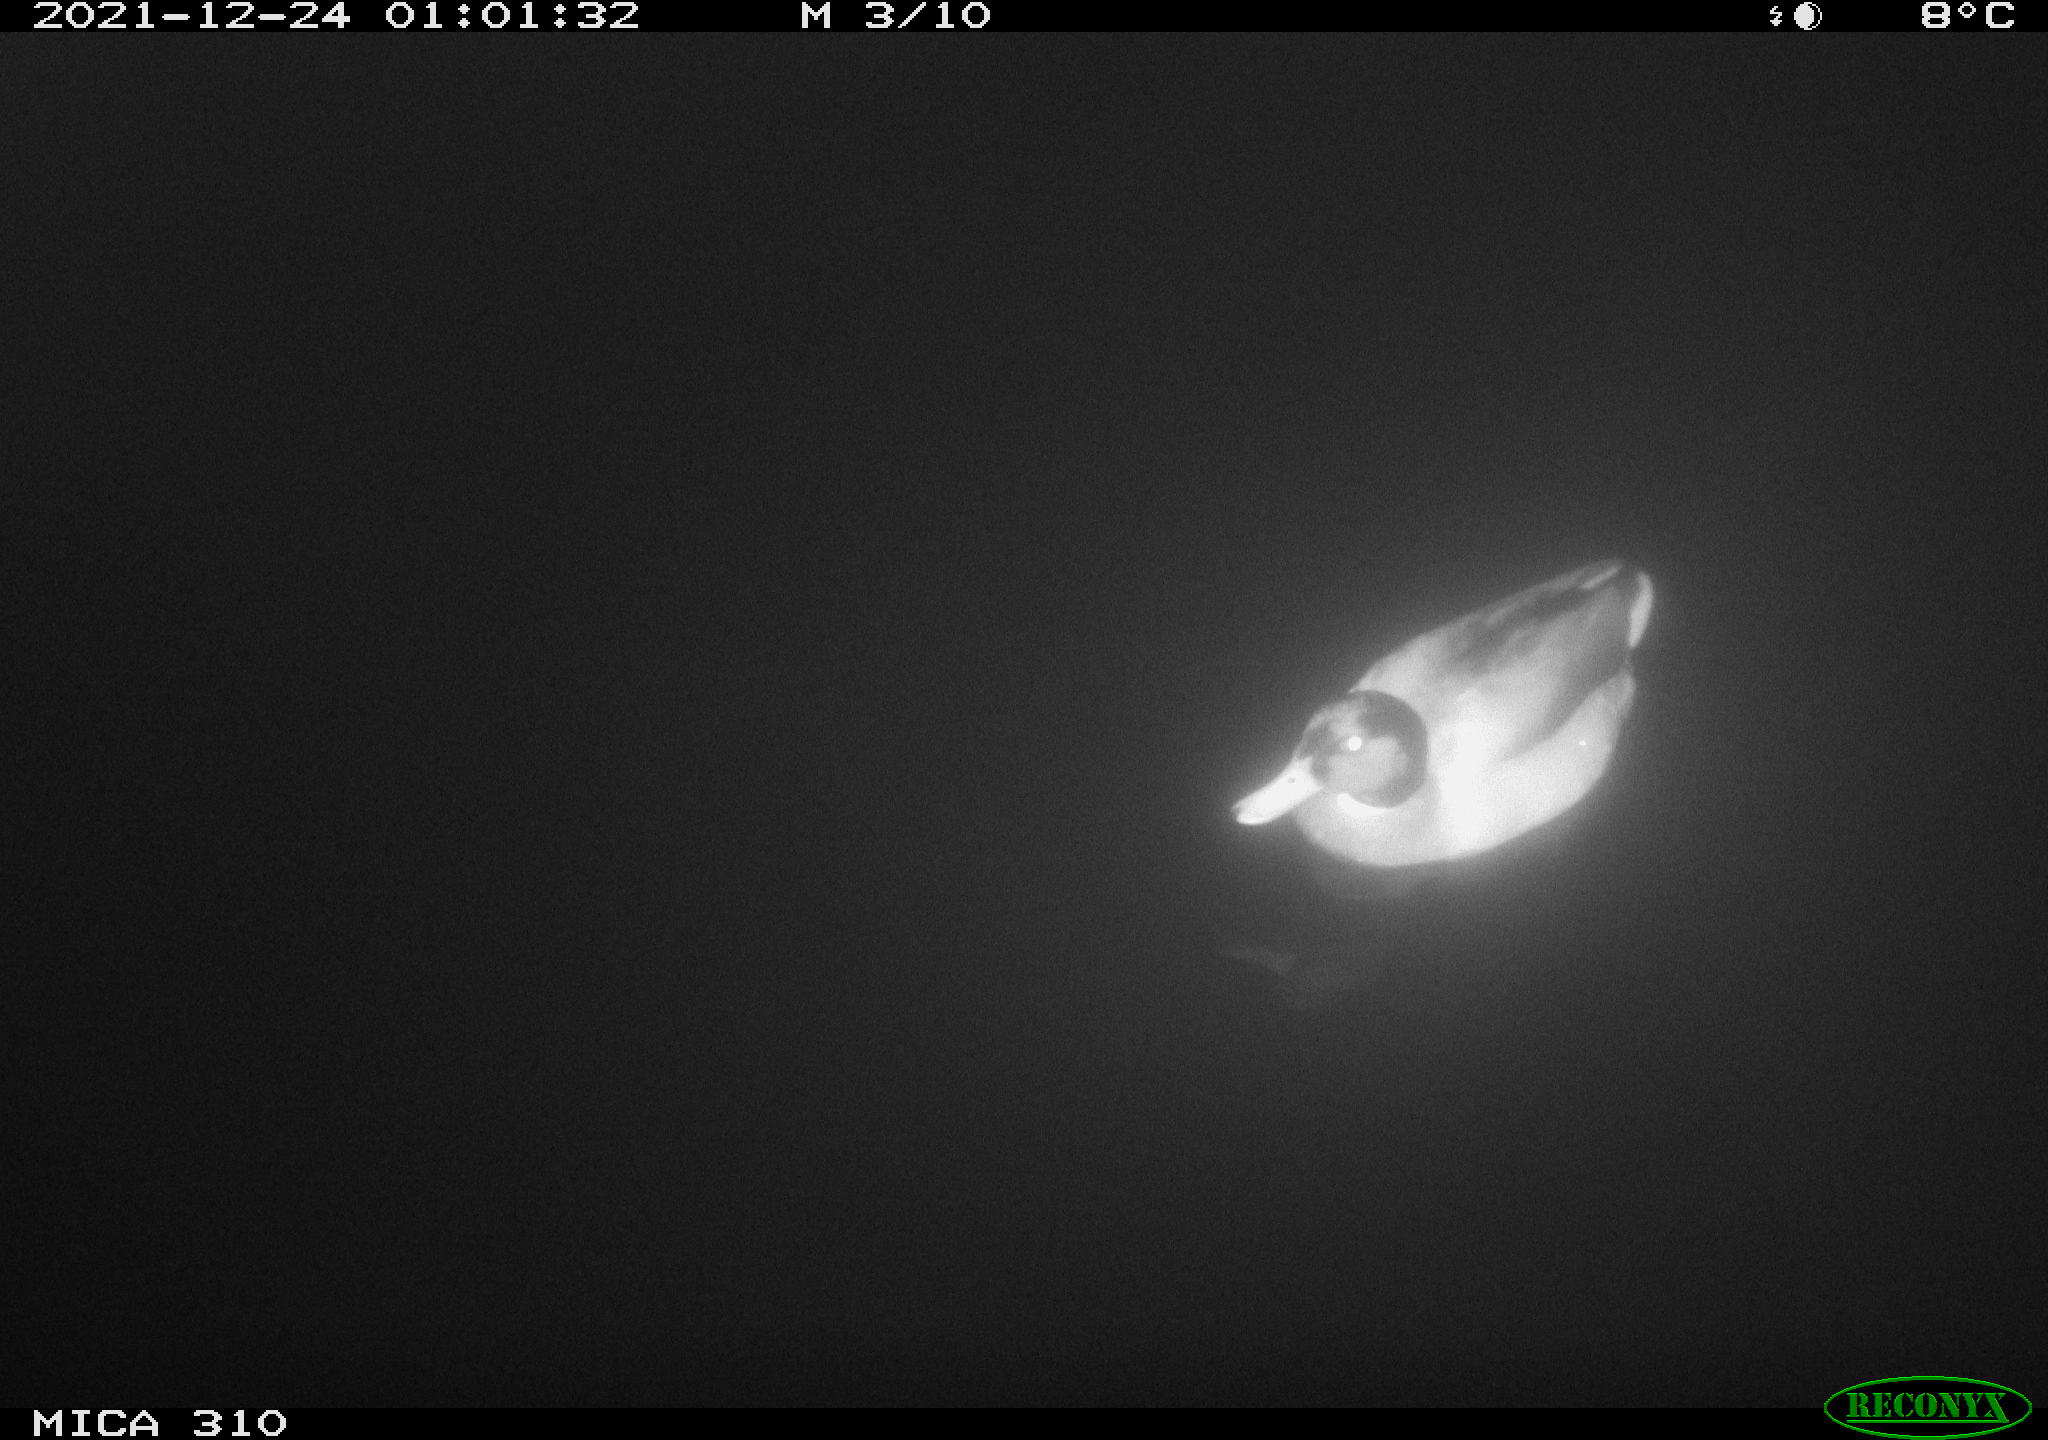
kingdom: Animalia
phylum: Chordata
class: Aves
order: Gruiformes
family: Rallidae
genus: Gallinula
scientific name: Gallinula chloropus
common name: Common moorhen
